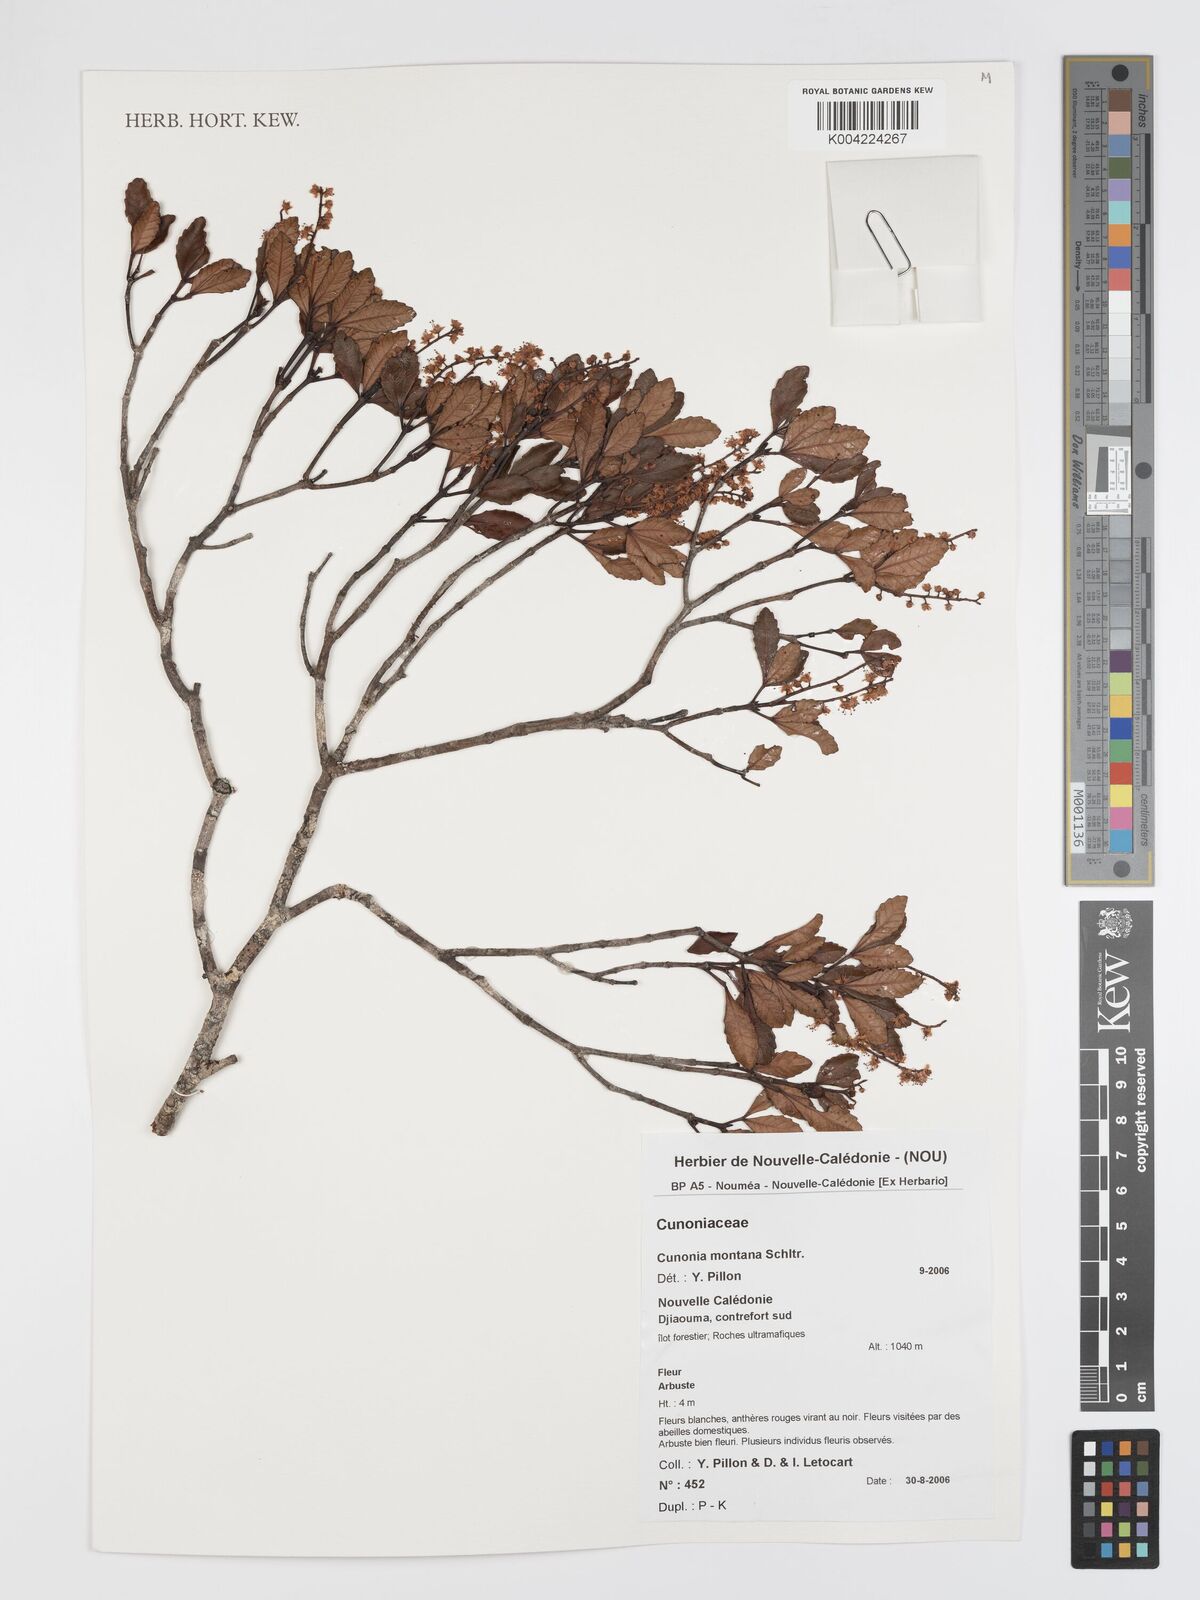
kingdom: Plantae
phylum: Tracheophyta
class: Magnoliopsida
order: Oxalidales
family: Cunoniaceae
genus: Cunonia
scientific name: Cunonia montana
